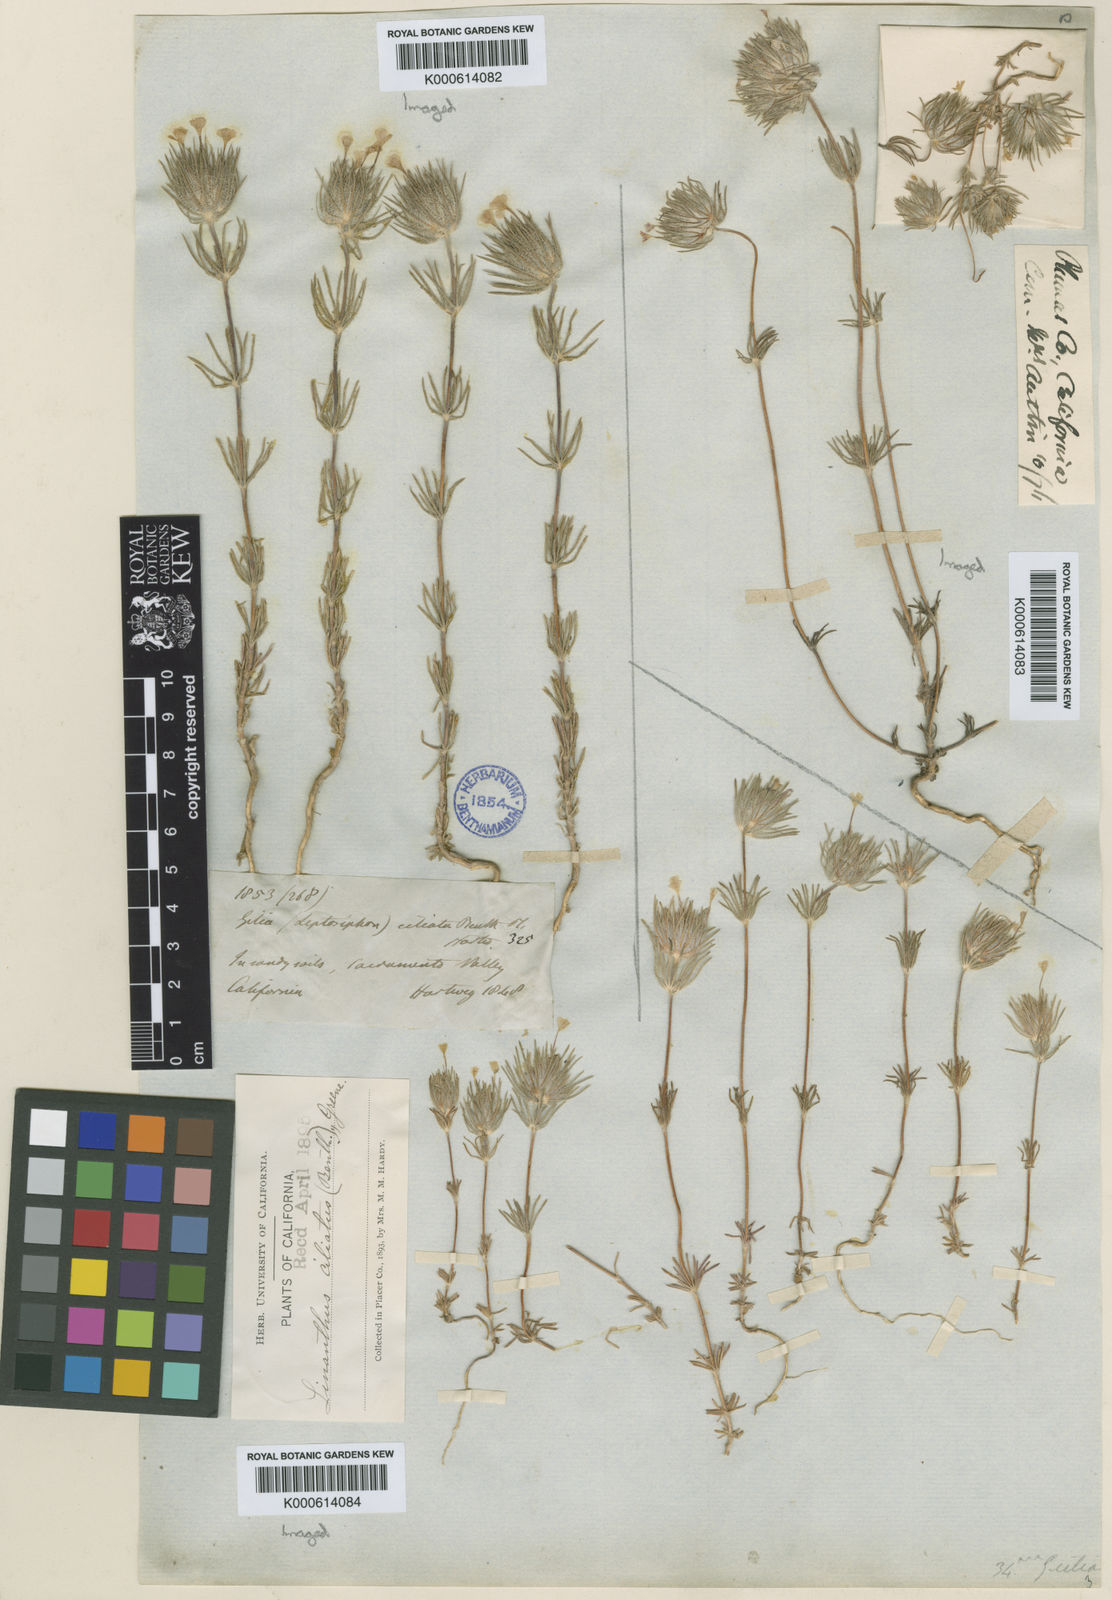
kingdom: Plantae
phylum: Tracheophyta
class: Magnoliopsida
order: Ericales
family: Polemoniaceae
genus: Leptosiphon
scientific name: Leptosiphon ciliatus
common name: Whiskerbrush
